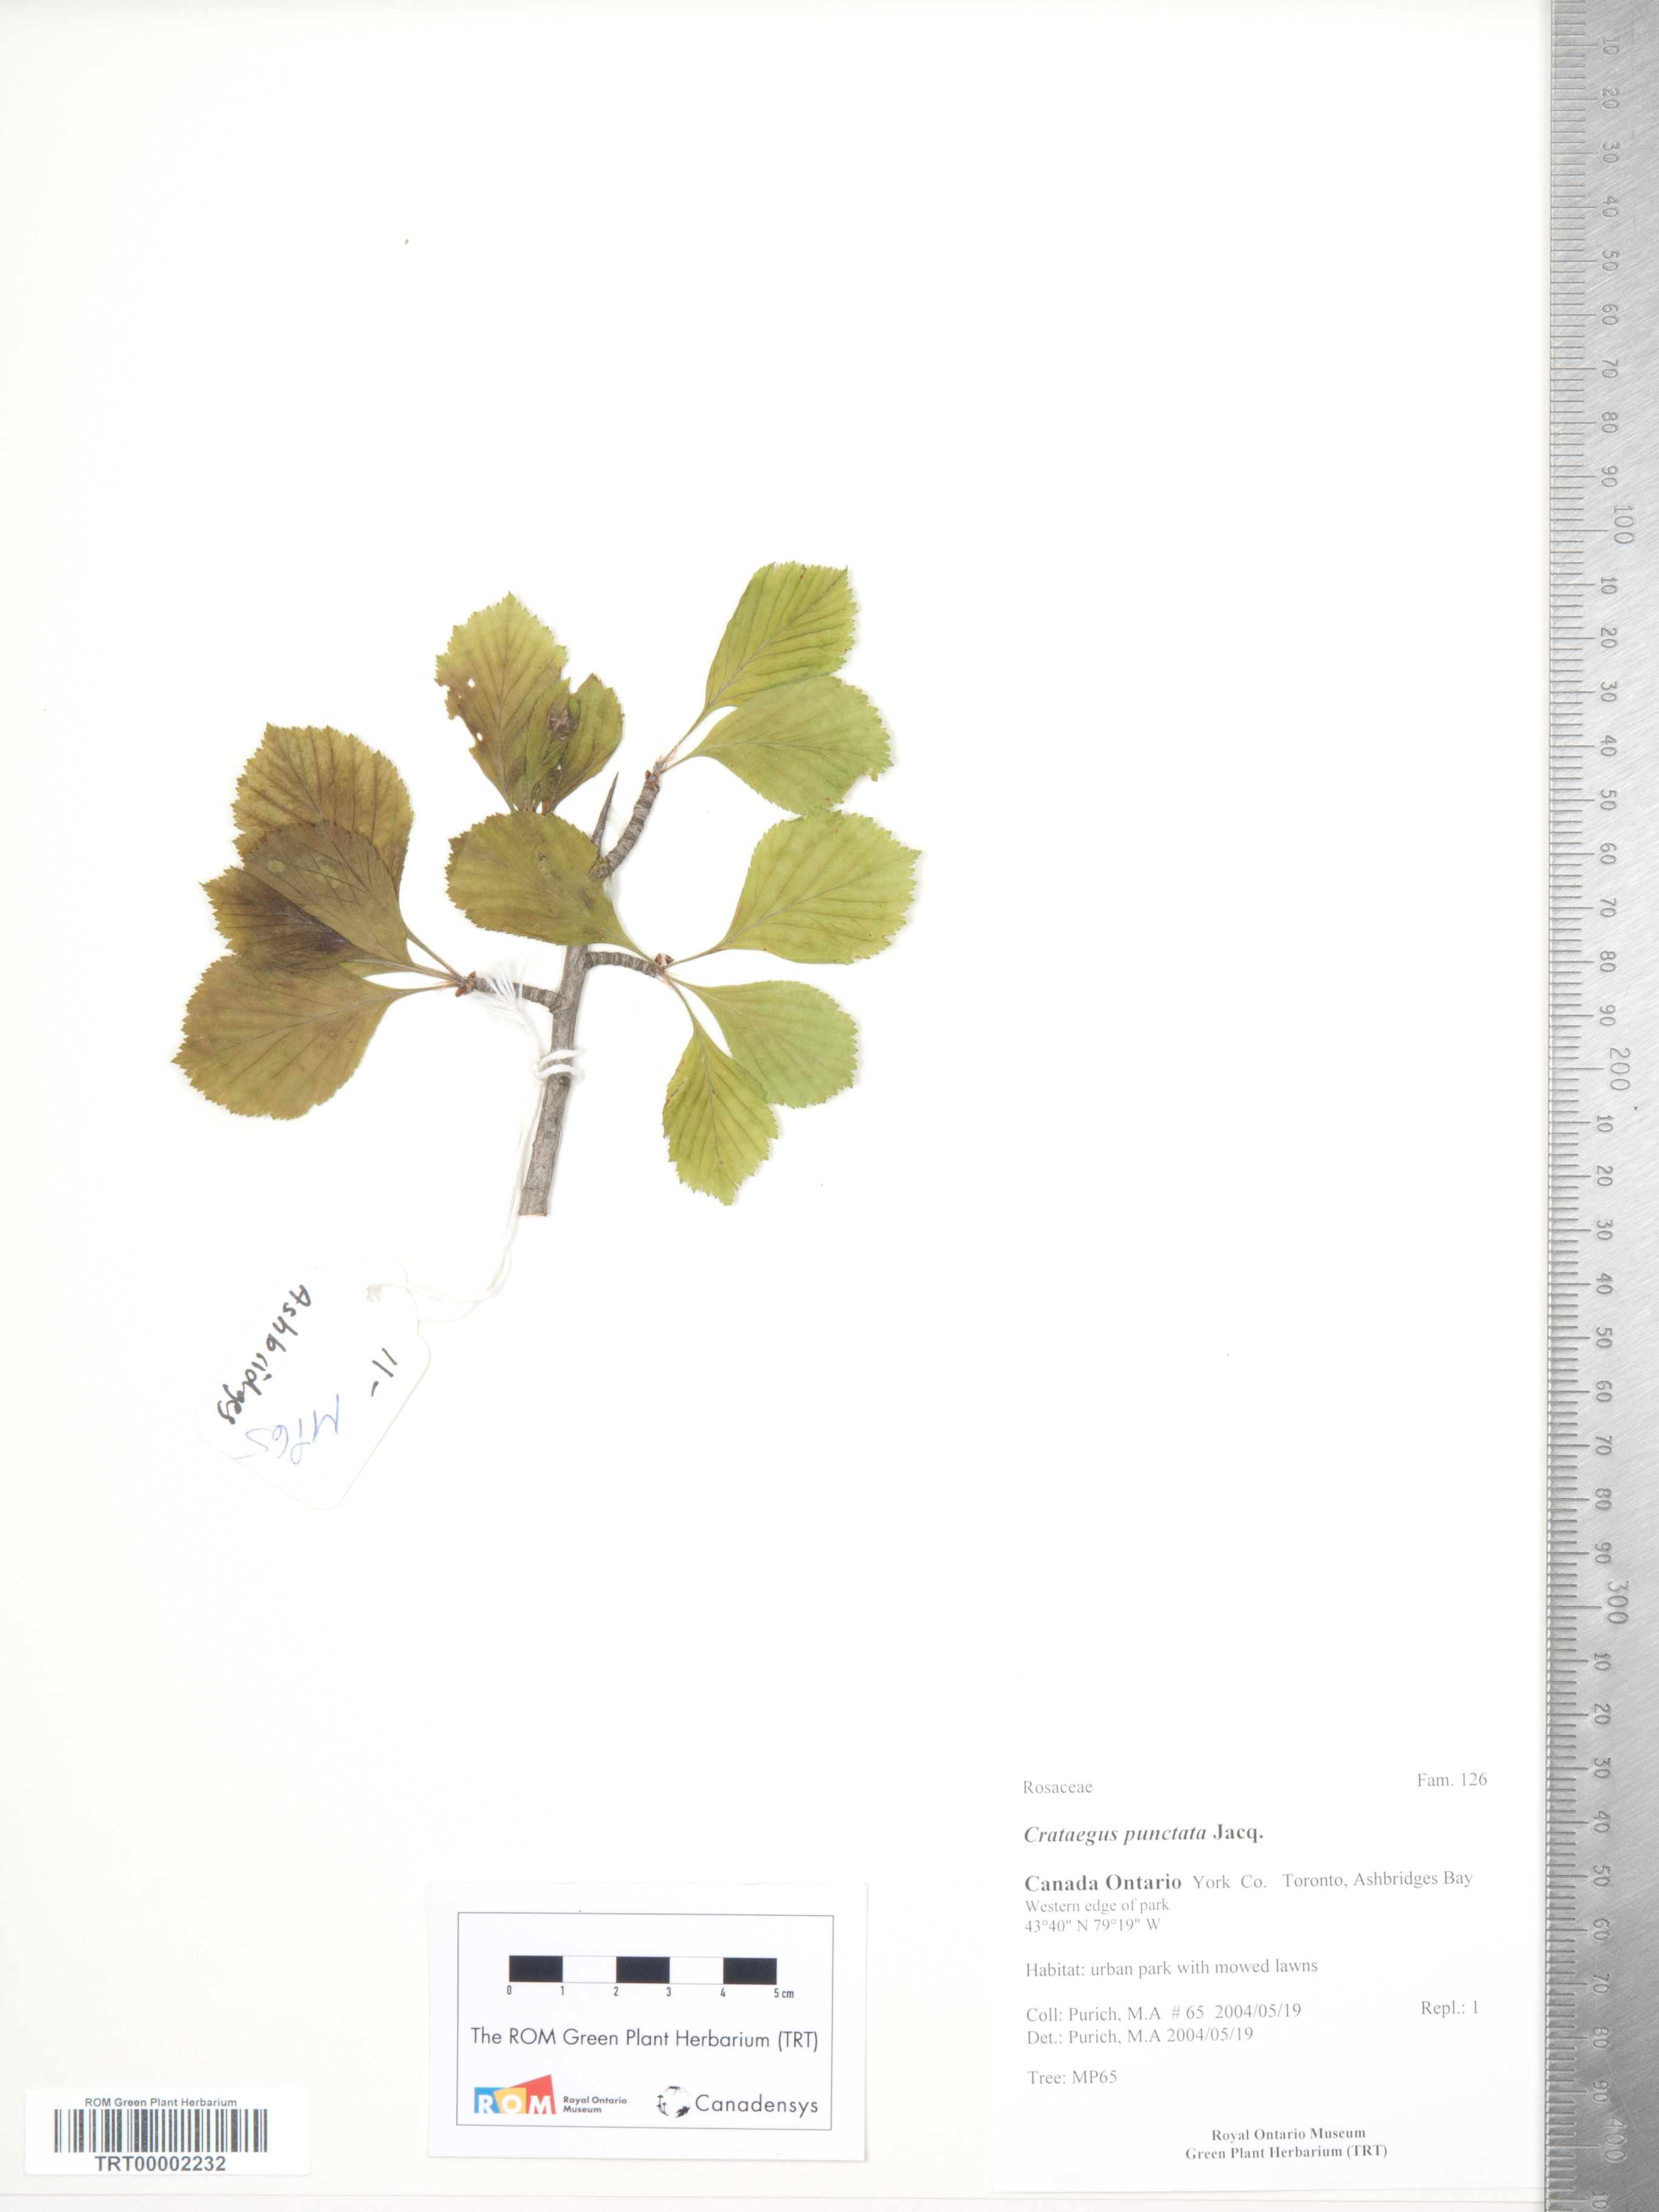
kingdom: Plantae
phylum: Tracheophyta
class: Magnoliopsida
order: Rosales
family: Rosaceae
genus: Crataegus
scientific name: Crataegus punctata
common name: Dotted hawthorn
